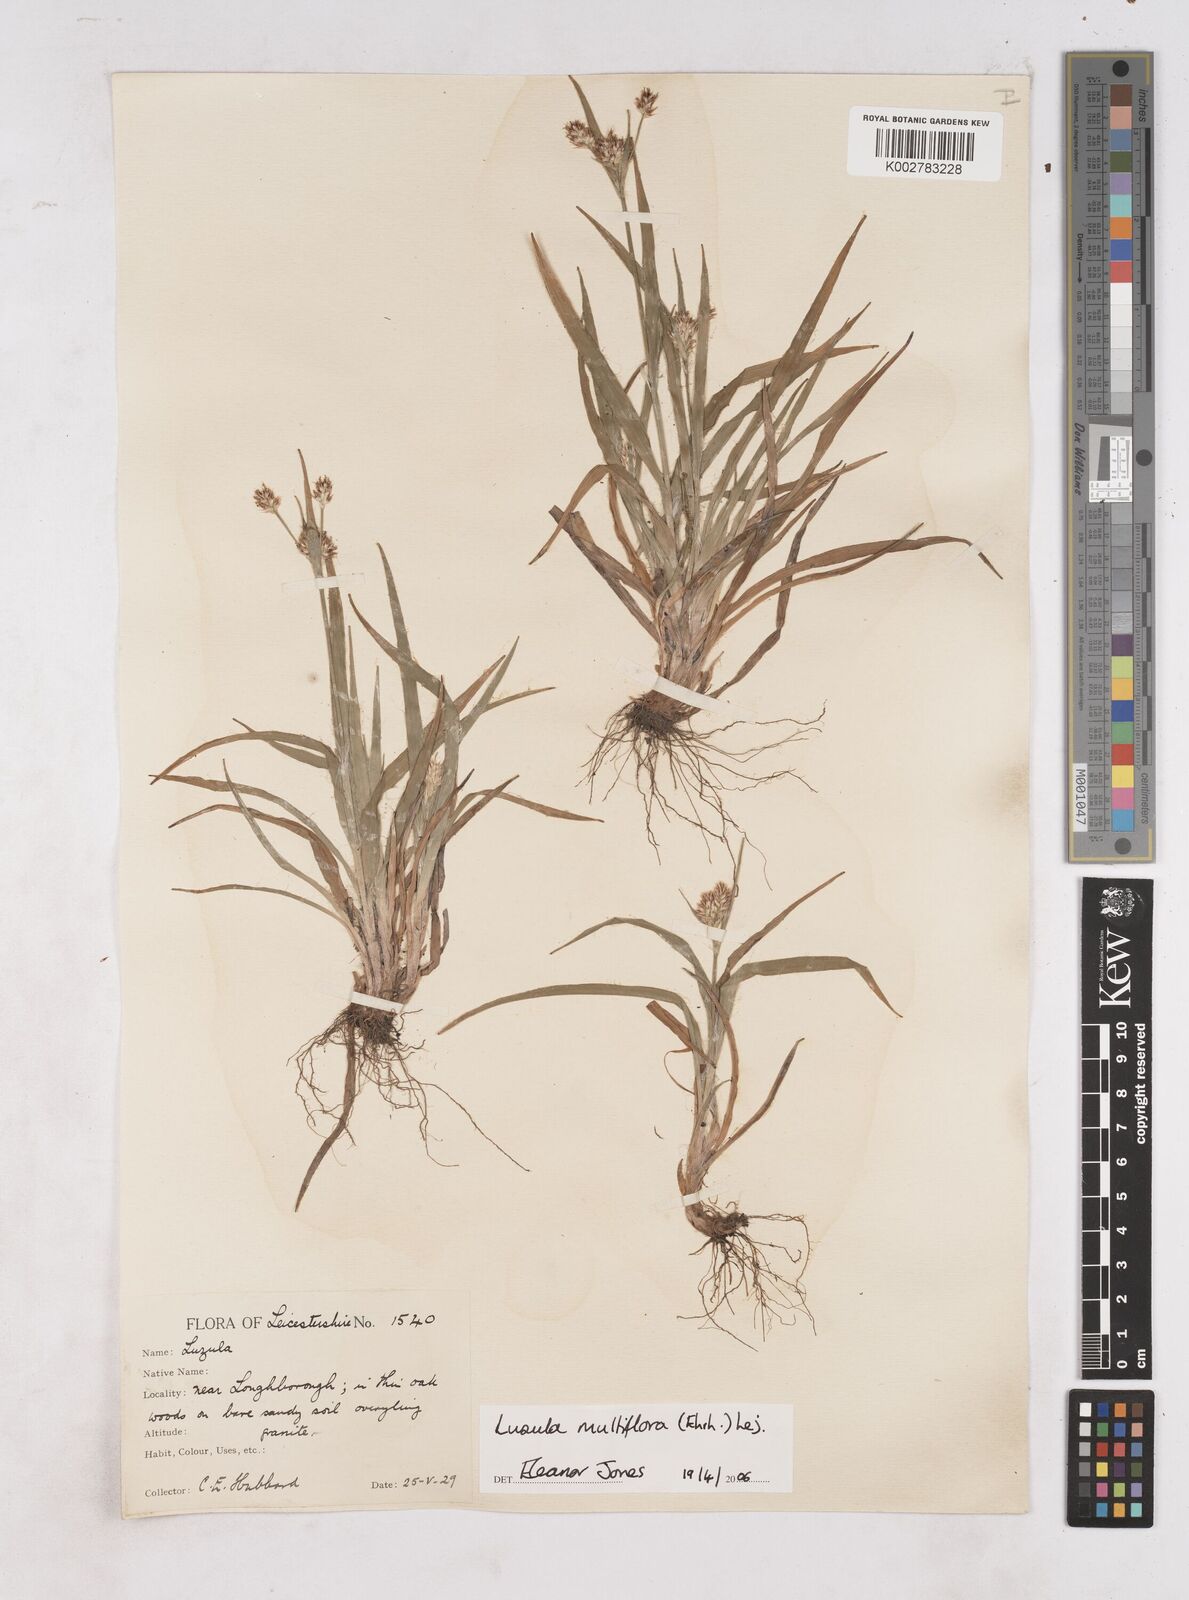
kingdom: Plantae
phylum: Tracheophyta
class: Liliopsida
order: Poales
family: Juncaceae
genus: Luzula
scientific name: Luzula multiflora
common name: Heath wood-rush
